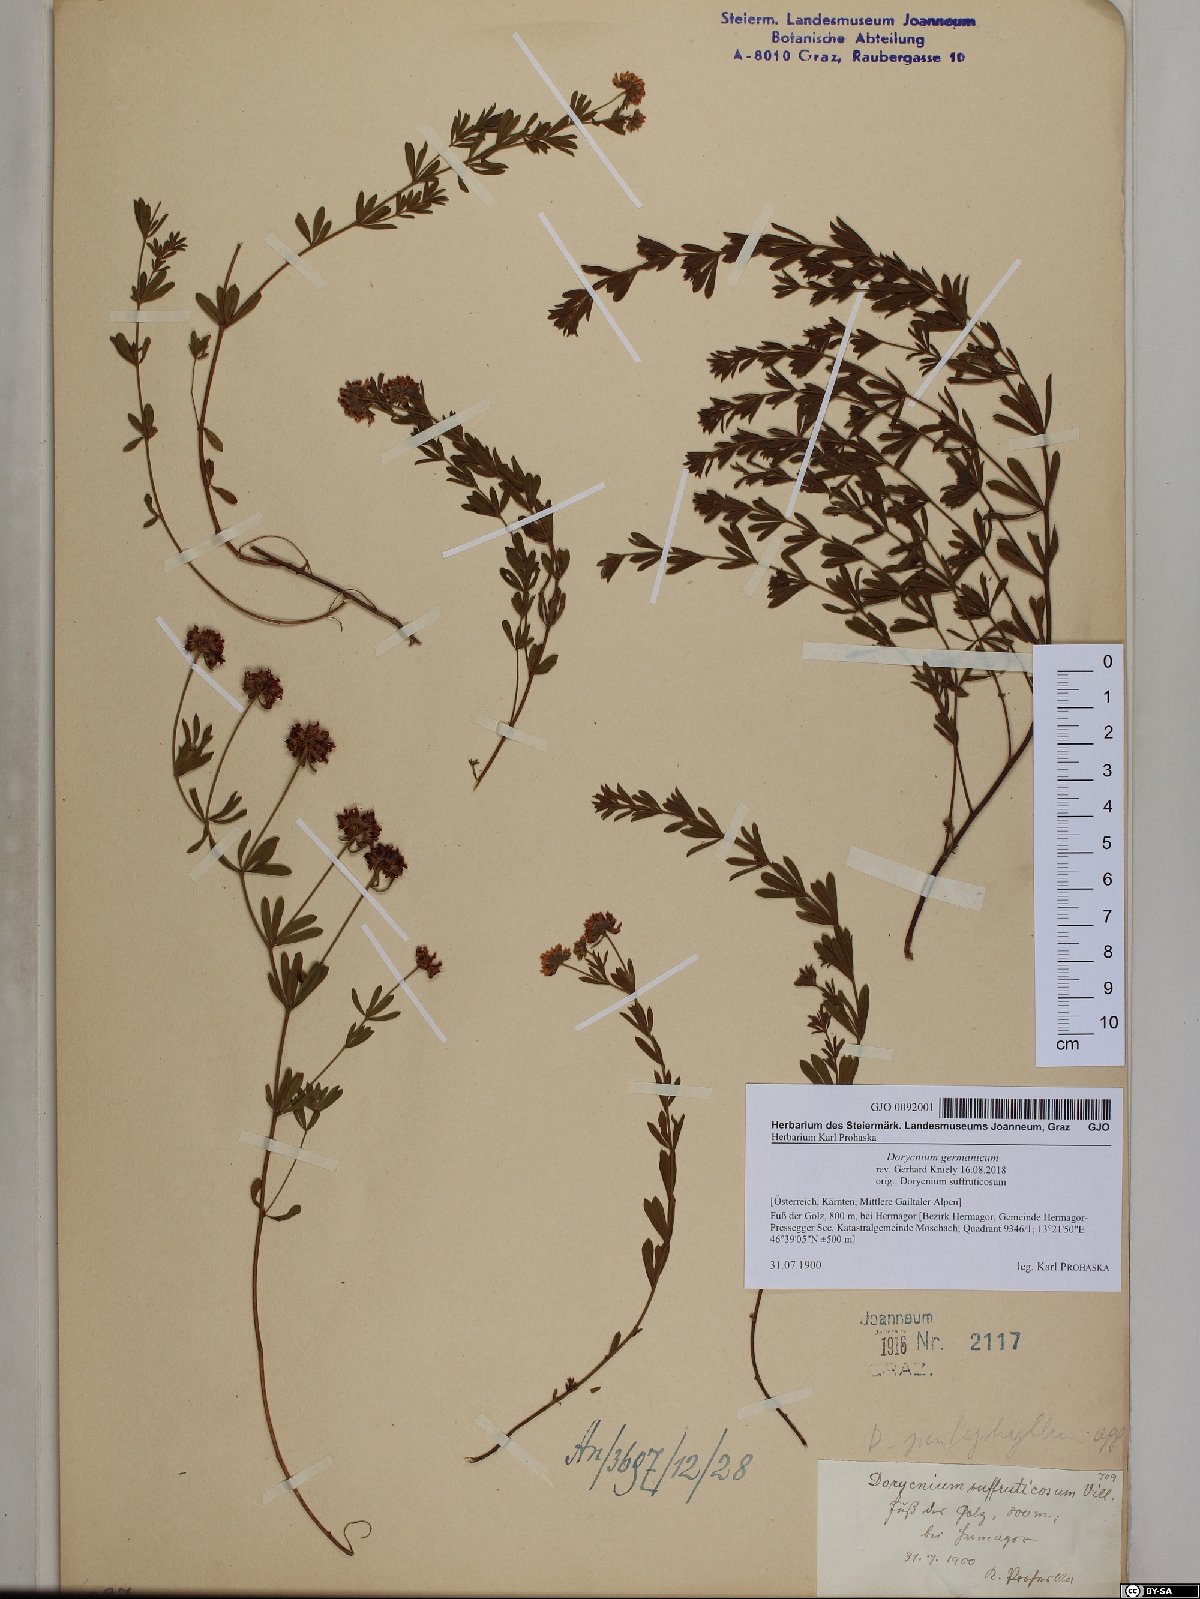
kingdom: Plantae
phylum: Tracheophyta
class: Magnoliopsida
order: Fabales
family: Fabaceae
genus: Lotus
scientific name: Lotus germanicus
